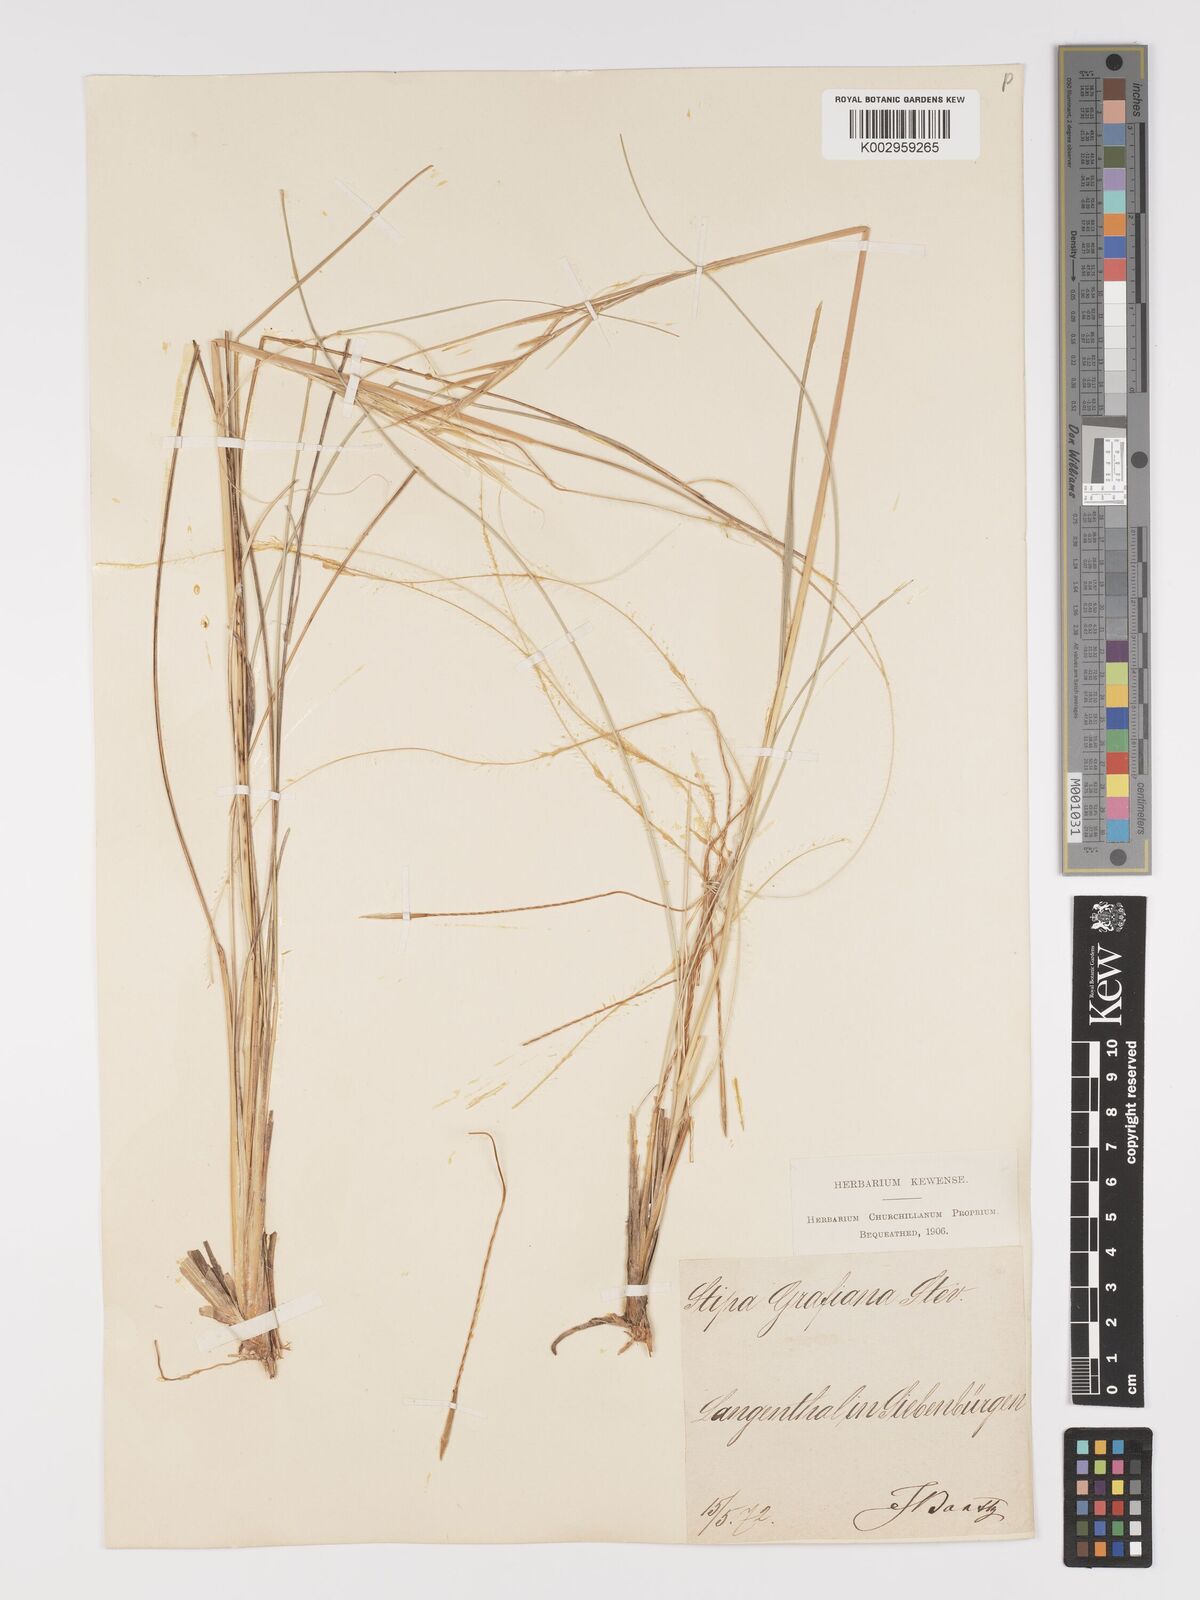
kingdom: Plantae
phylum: Tracheophyta
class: Liliopsida
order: Poales
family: Poaceae
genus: Stipa
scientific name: Stipa pulcherrima
